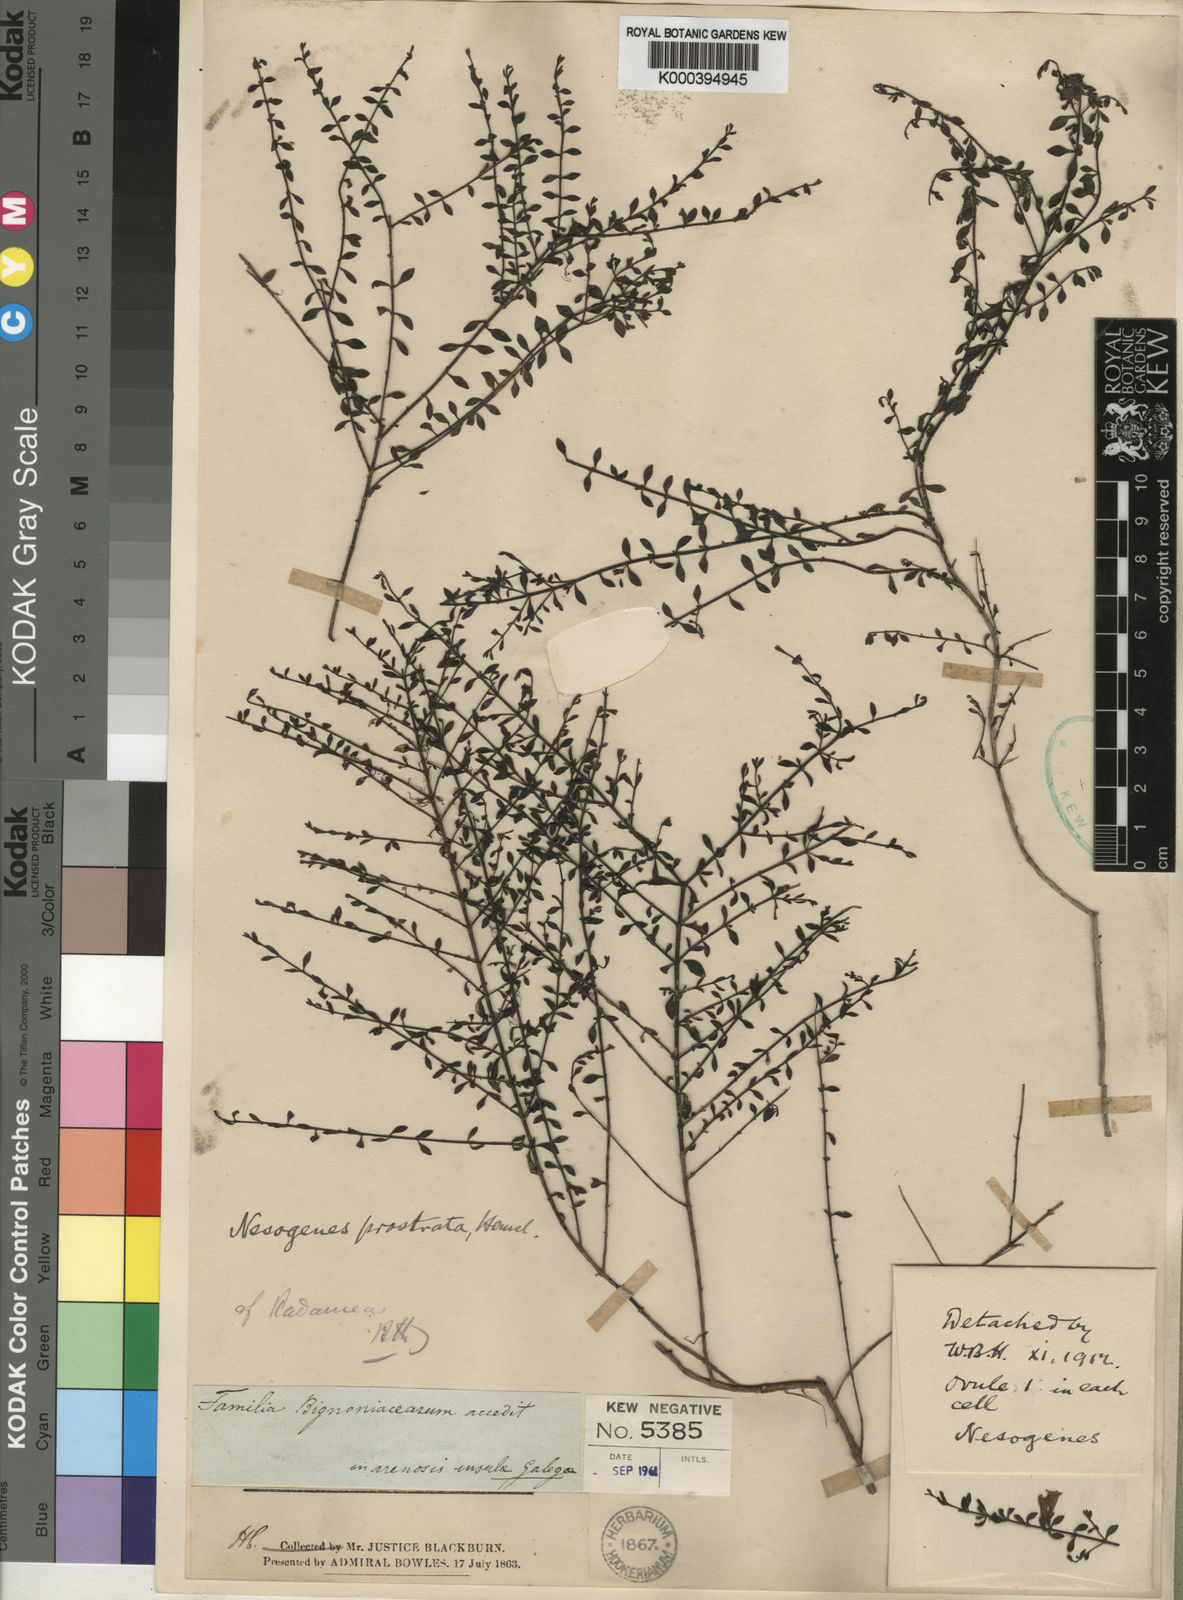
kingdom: Plantae
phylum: Tracheophyta
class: Magnoliopsida
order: Lamiales
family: Orobanchaceae
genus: Nesogenes
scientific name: Nesogenes prostrata
